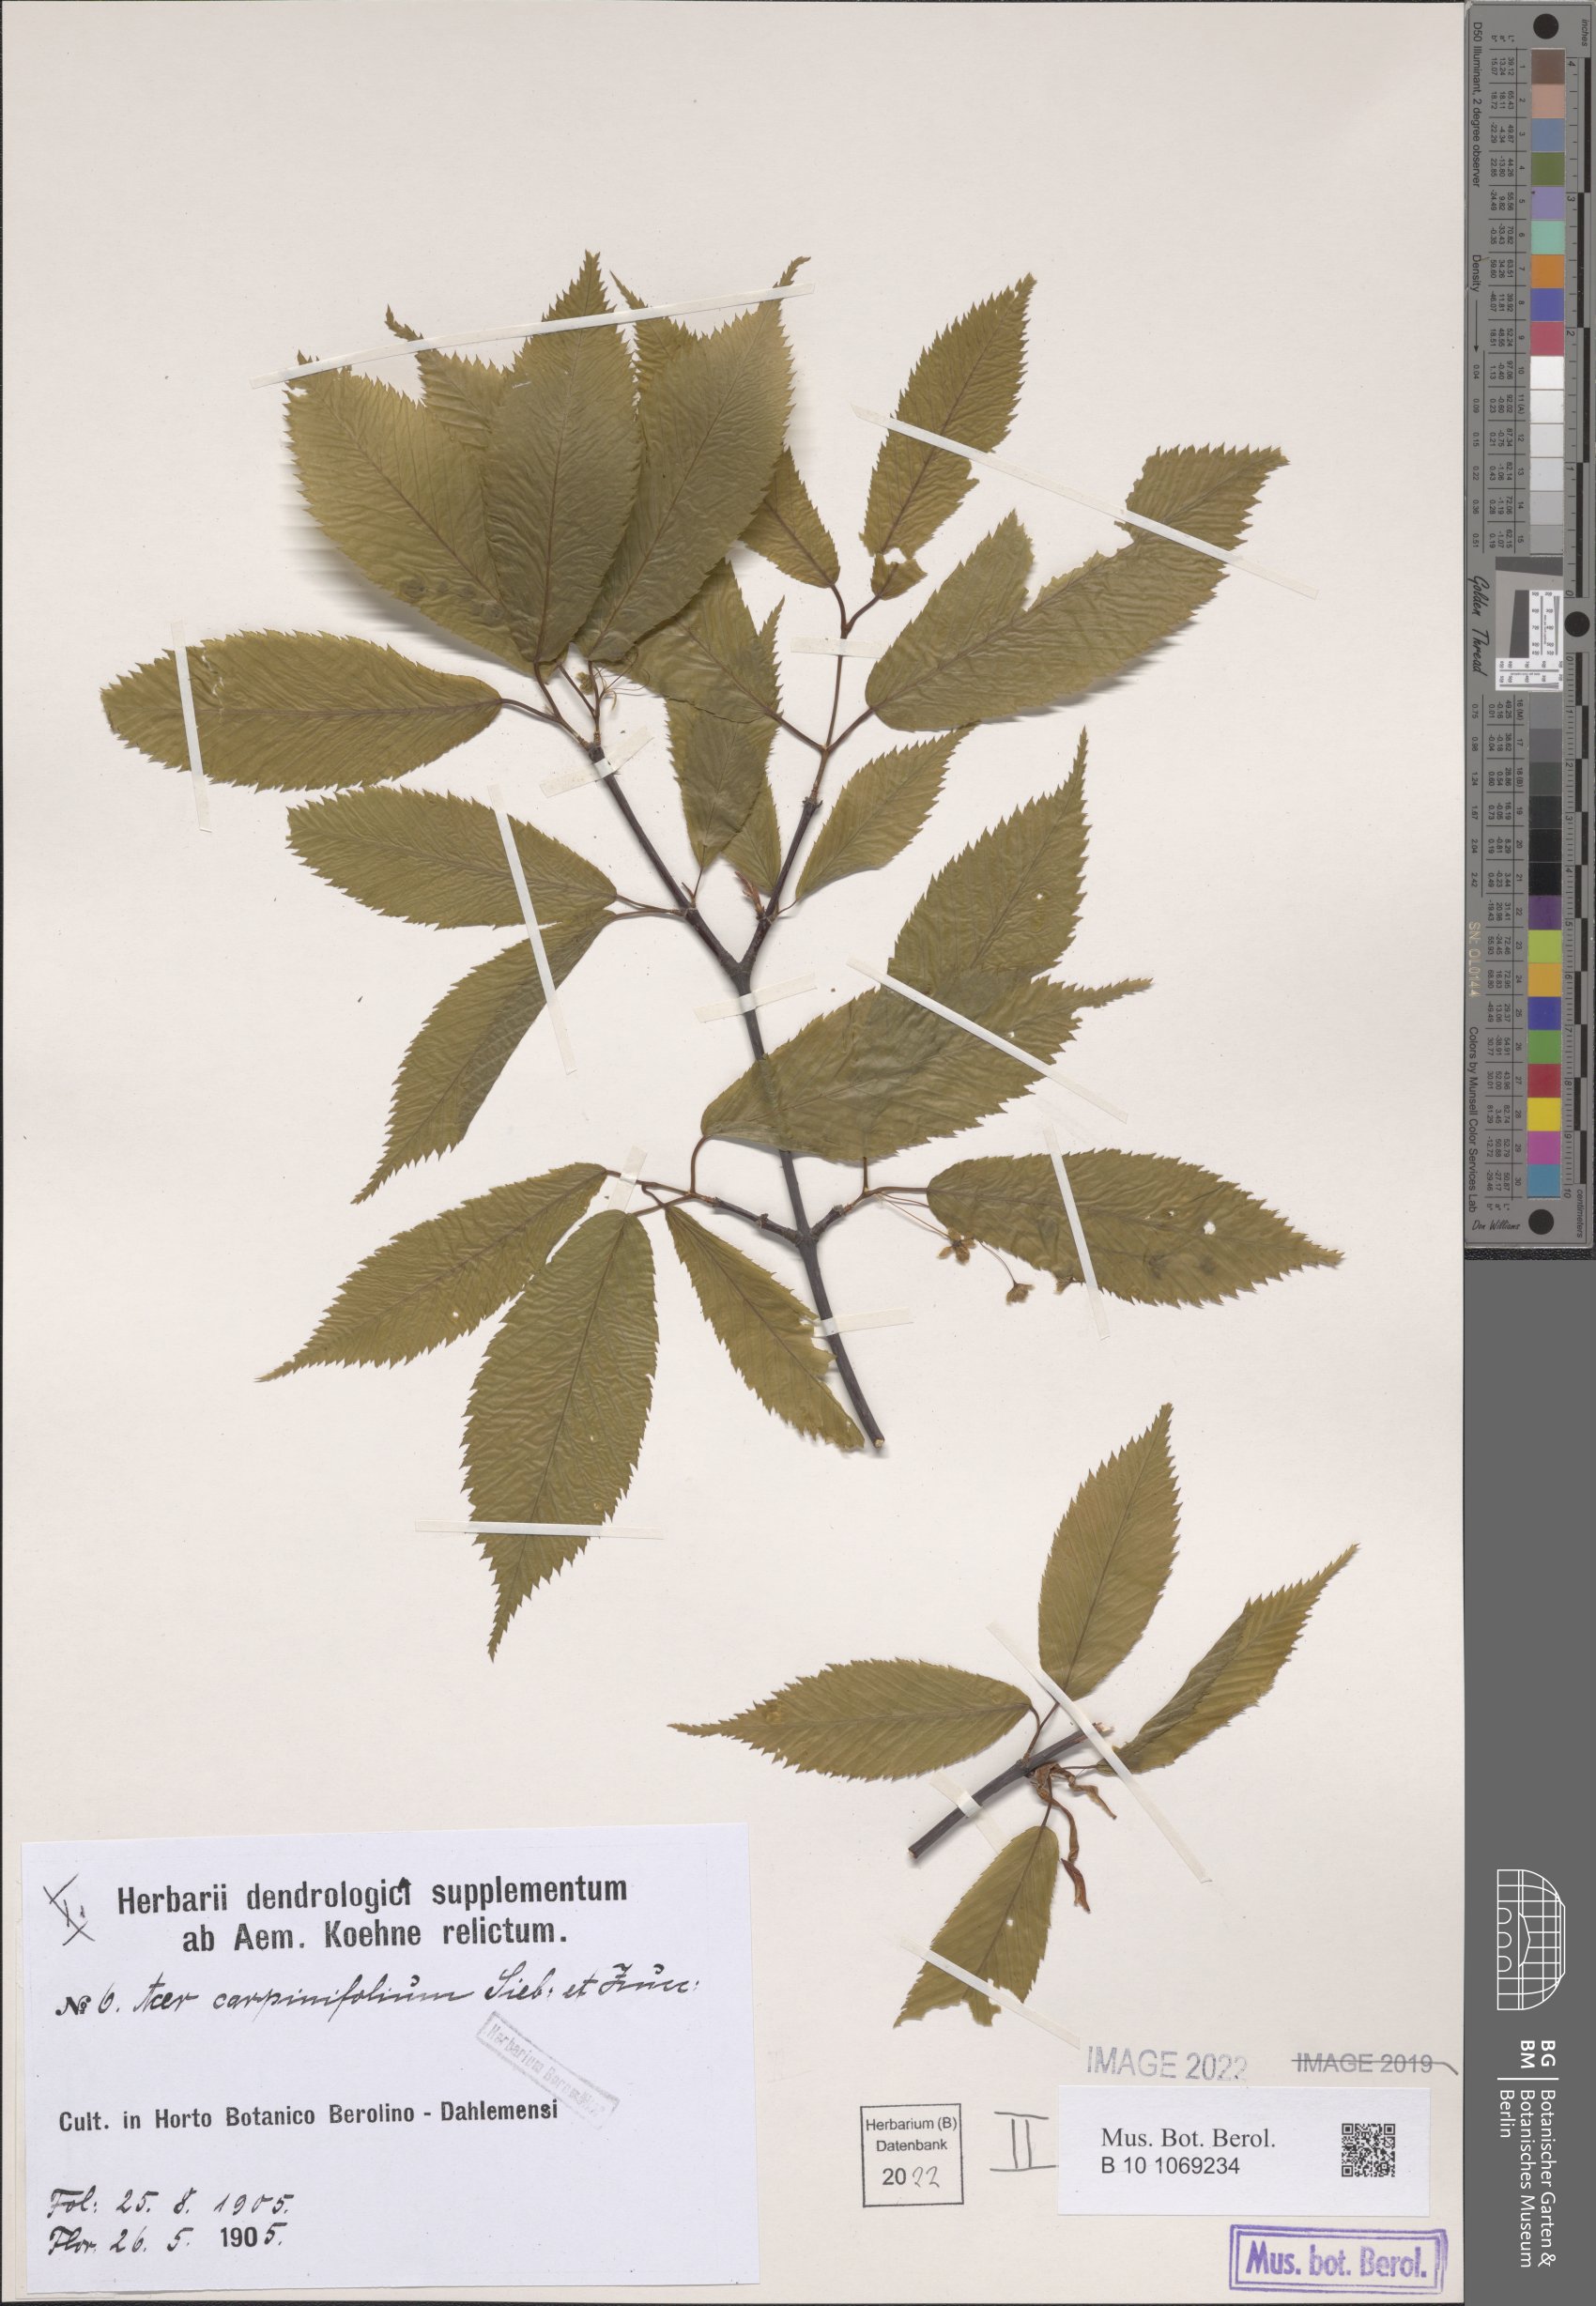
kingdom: Plantae
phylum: Tracheophyta
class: Magnoliopsida
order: Sapindales
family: Sapindaceae
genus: Acer
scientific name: Acer carpinifolium
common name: Hornbeam maple
